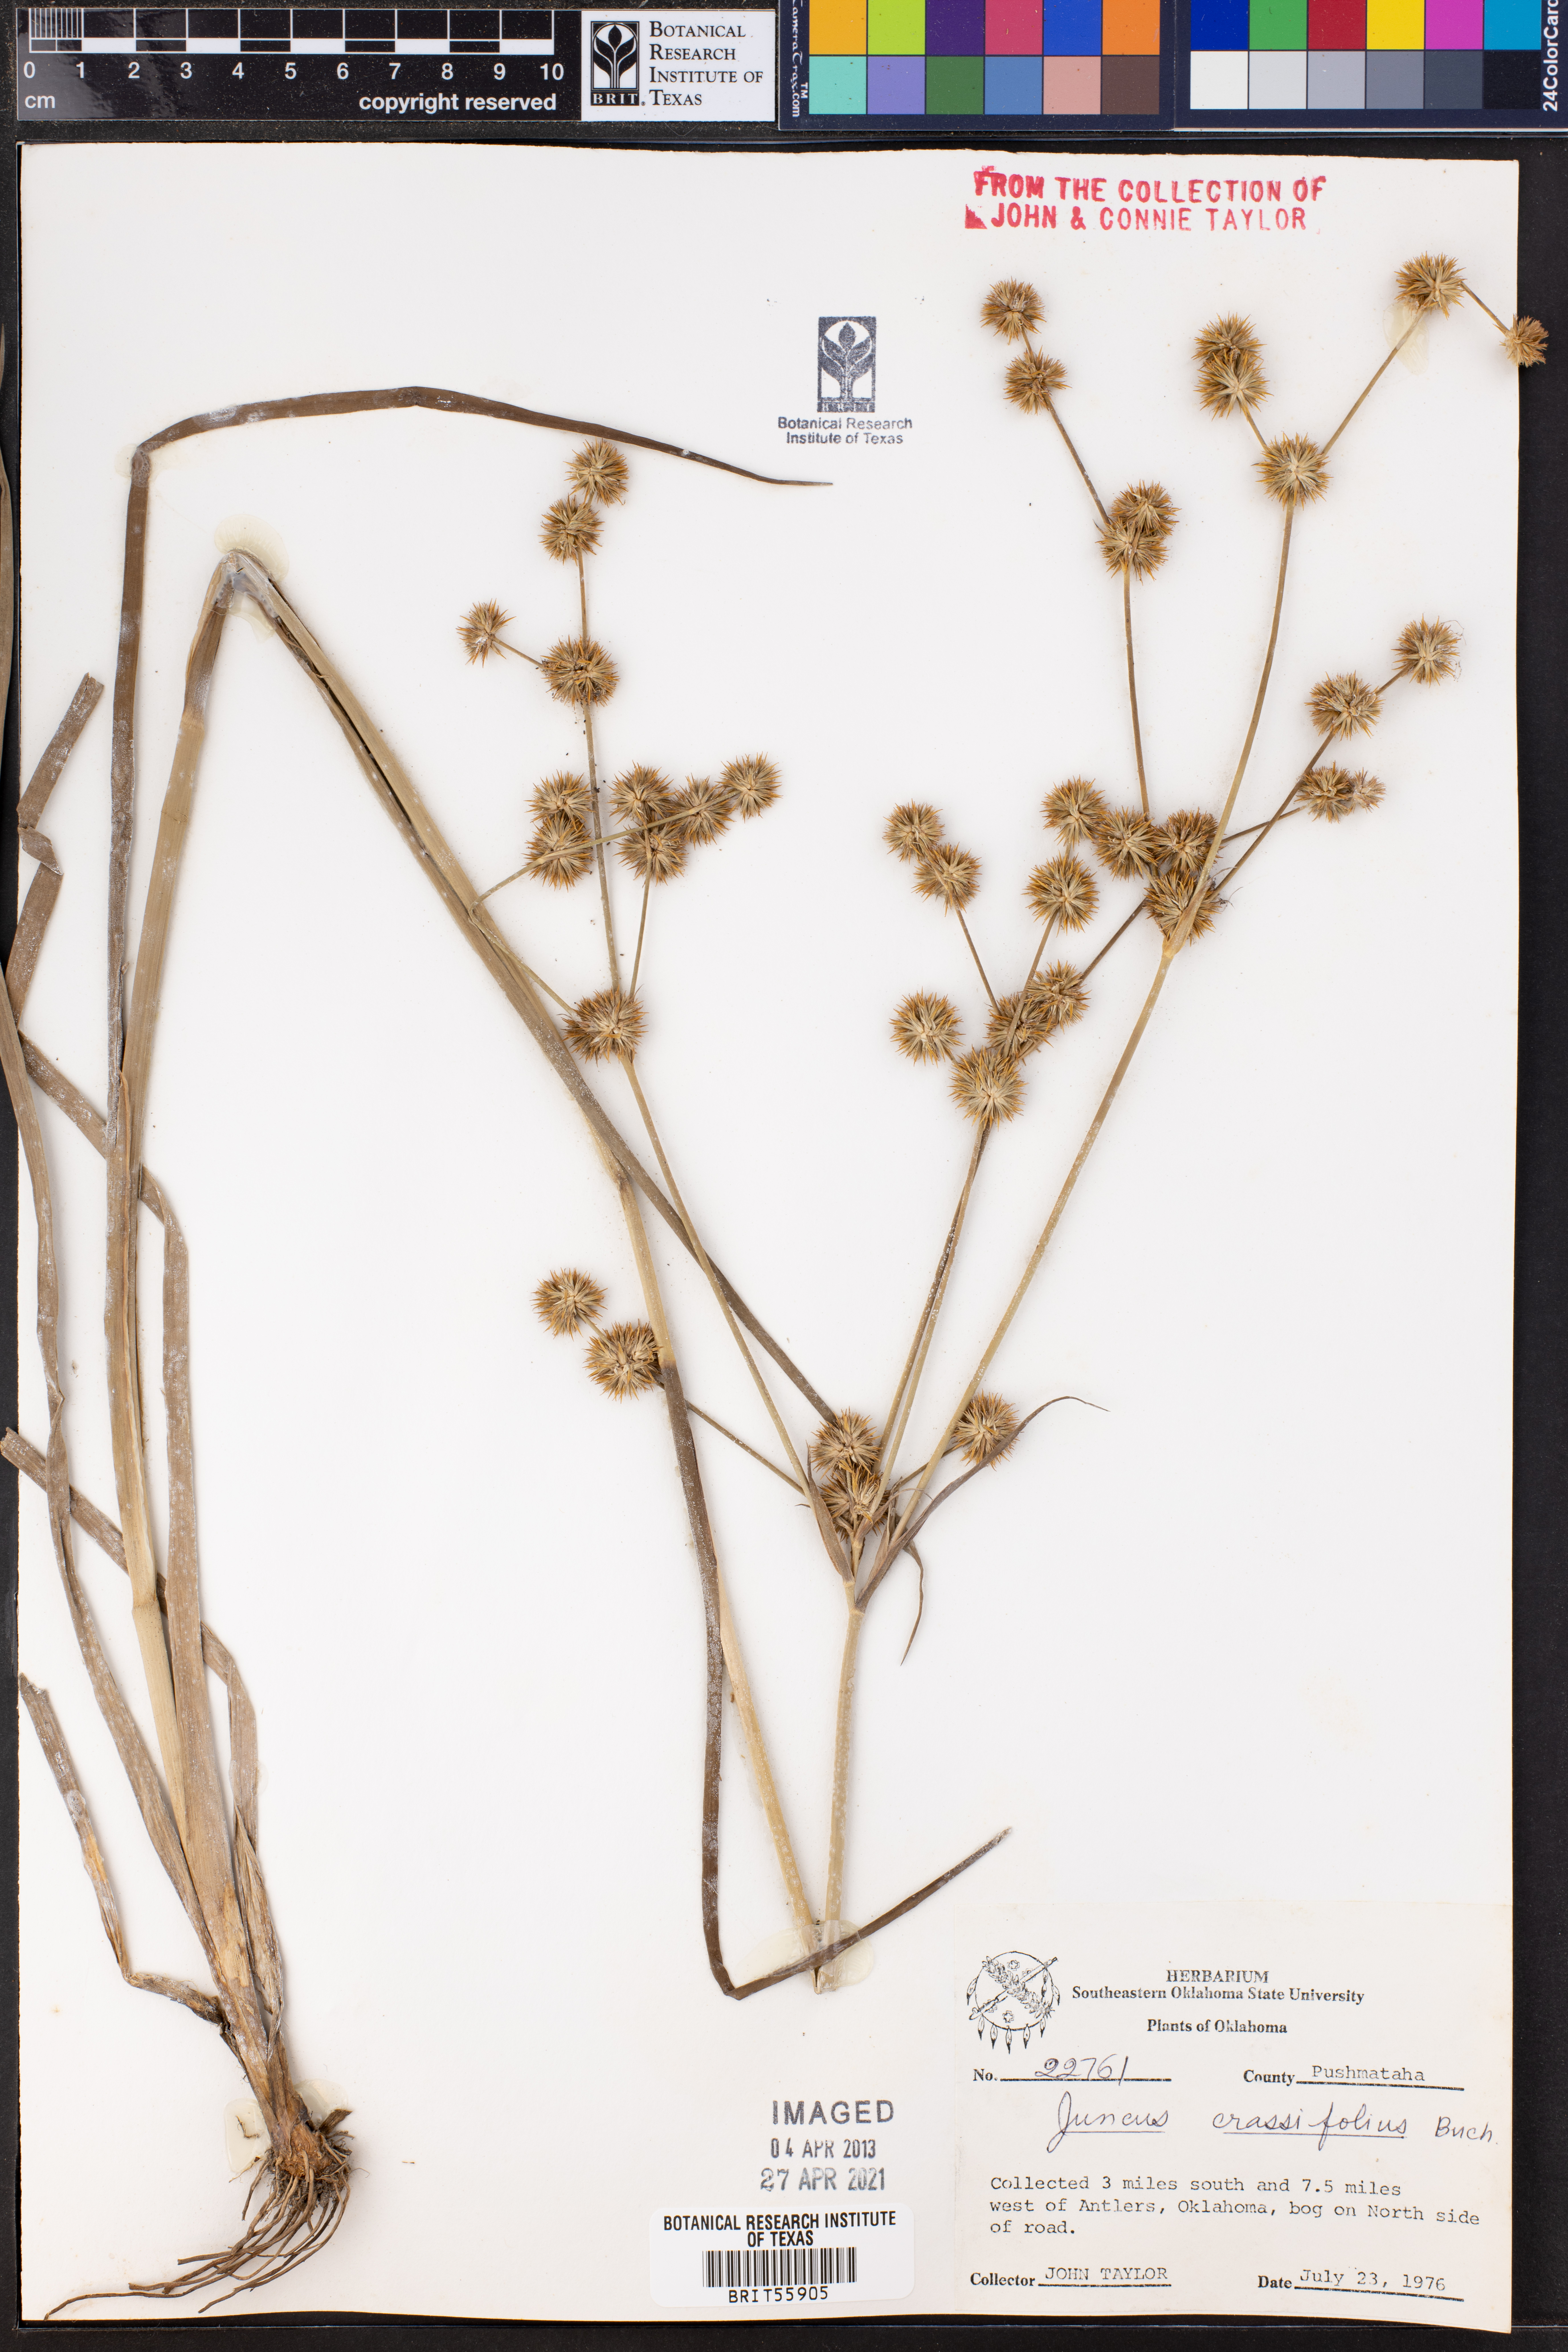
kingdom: Plantae
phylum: Tracheophyta
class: Liliopsida
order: Poales
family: Juncaceae
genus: Juncus
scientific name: Juncus validus
